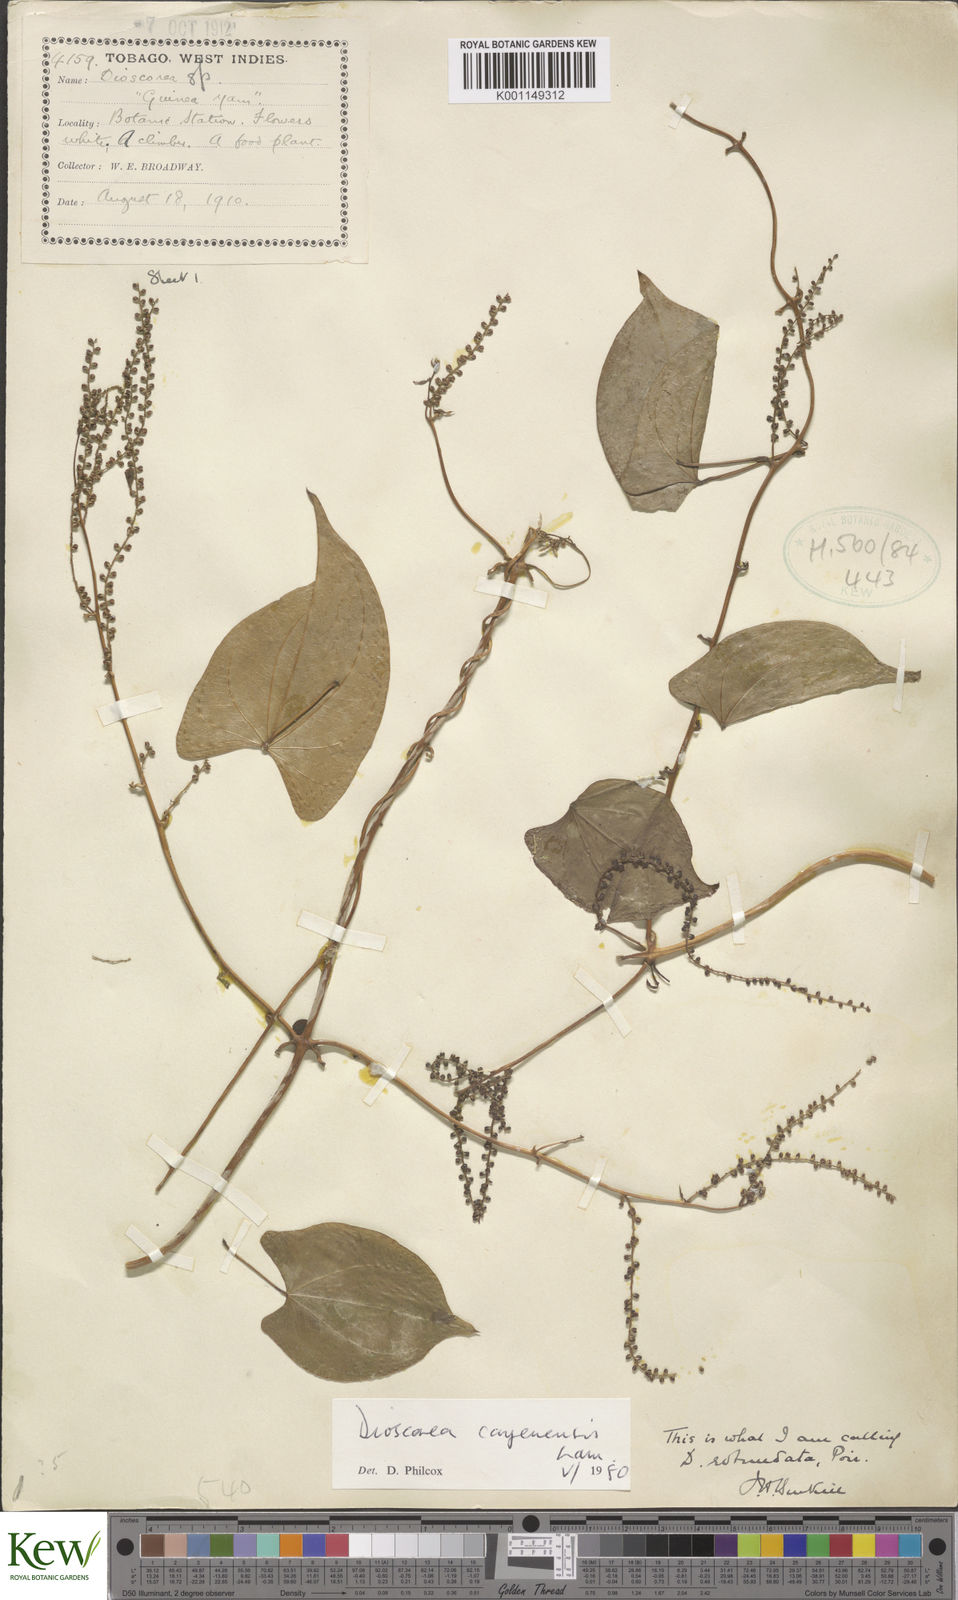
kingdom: Plantae
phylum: Tracheophyta
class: Liliopsida
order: Dioscoreales
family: Dioscoreaceae
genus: Dioscorea
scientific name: Dioscorea cayenensis
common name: Attoto yam
